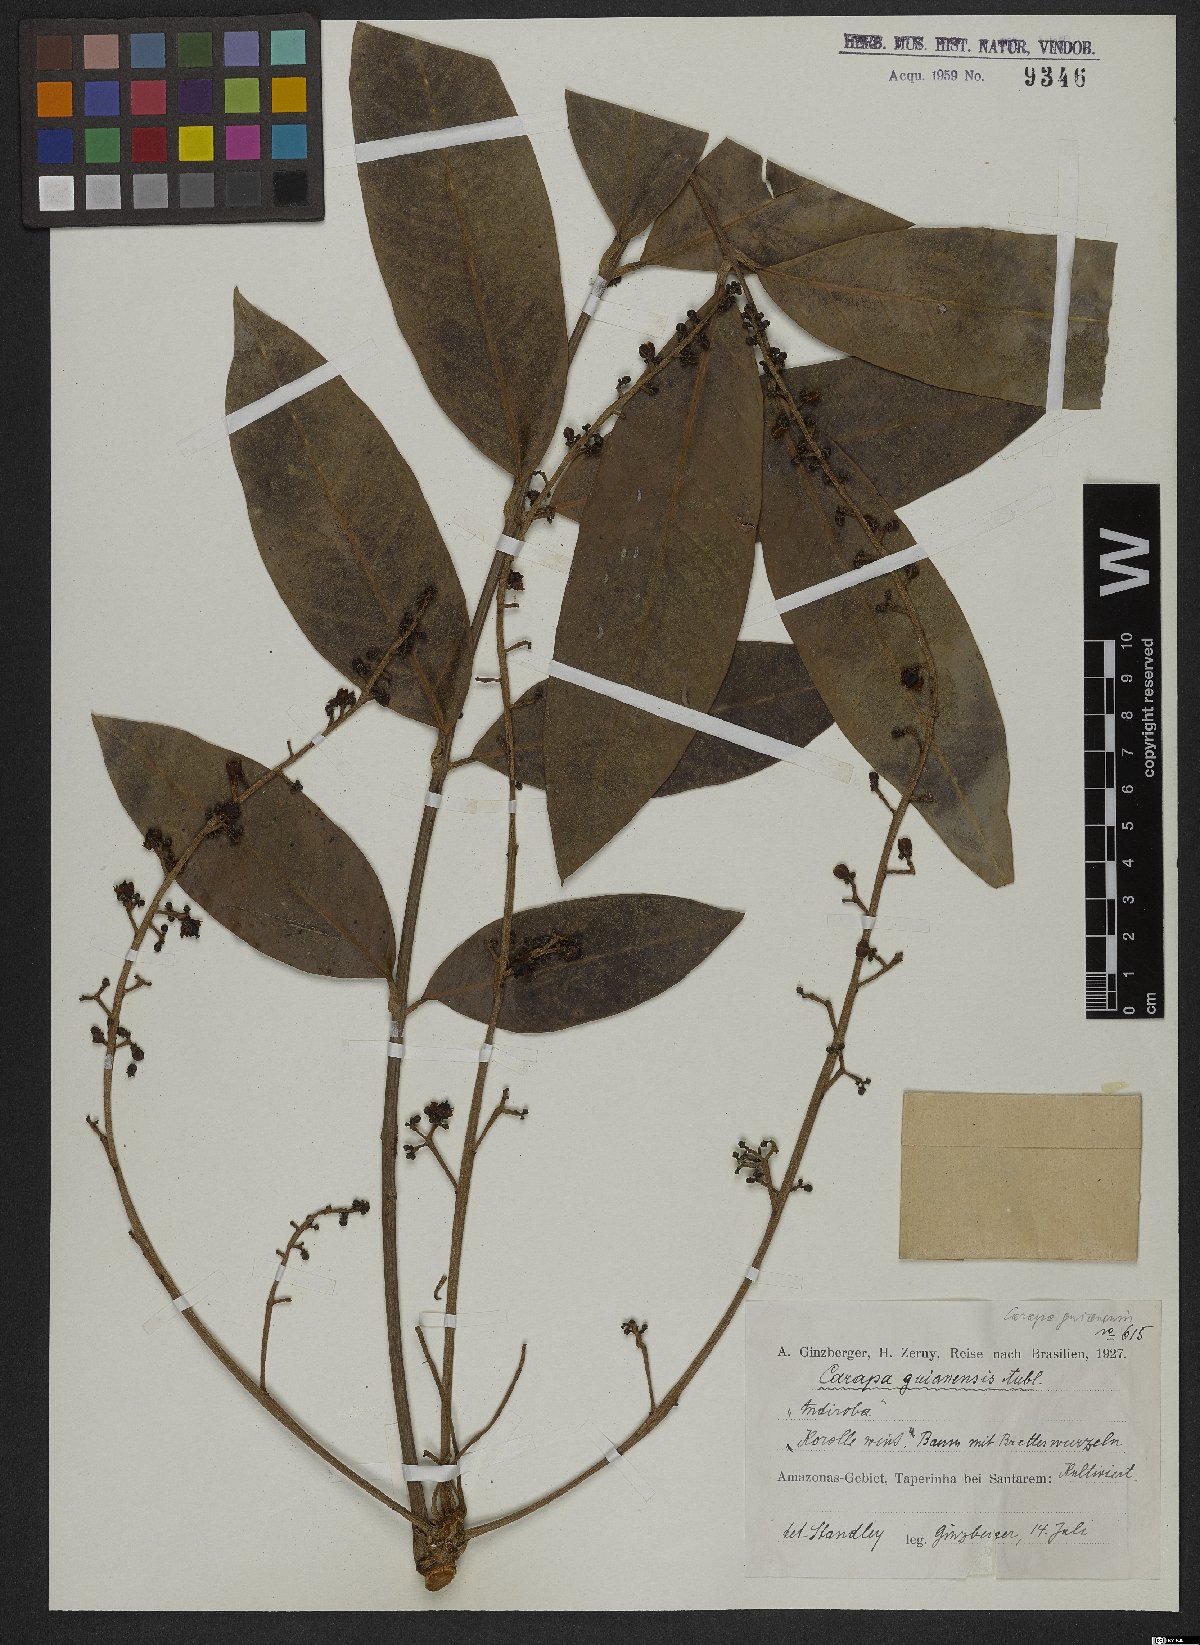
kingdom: Plantae
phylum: Tracheophyta
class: Magnoliopsida
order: Sapindales
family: Meliaceae
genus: Carapa
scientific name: Carapa guianensis
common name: Crabwood
